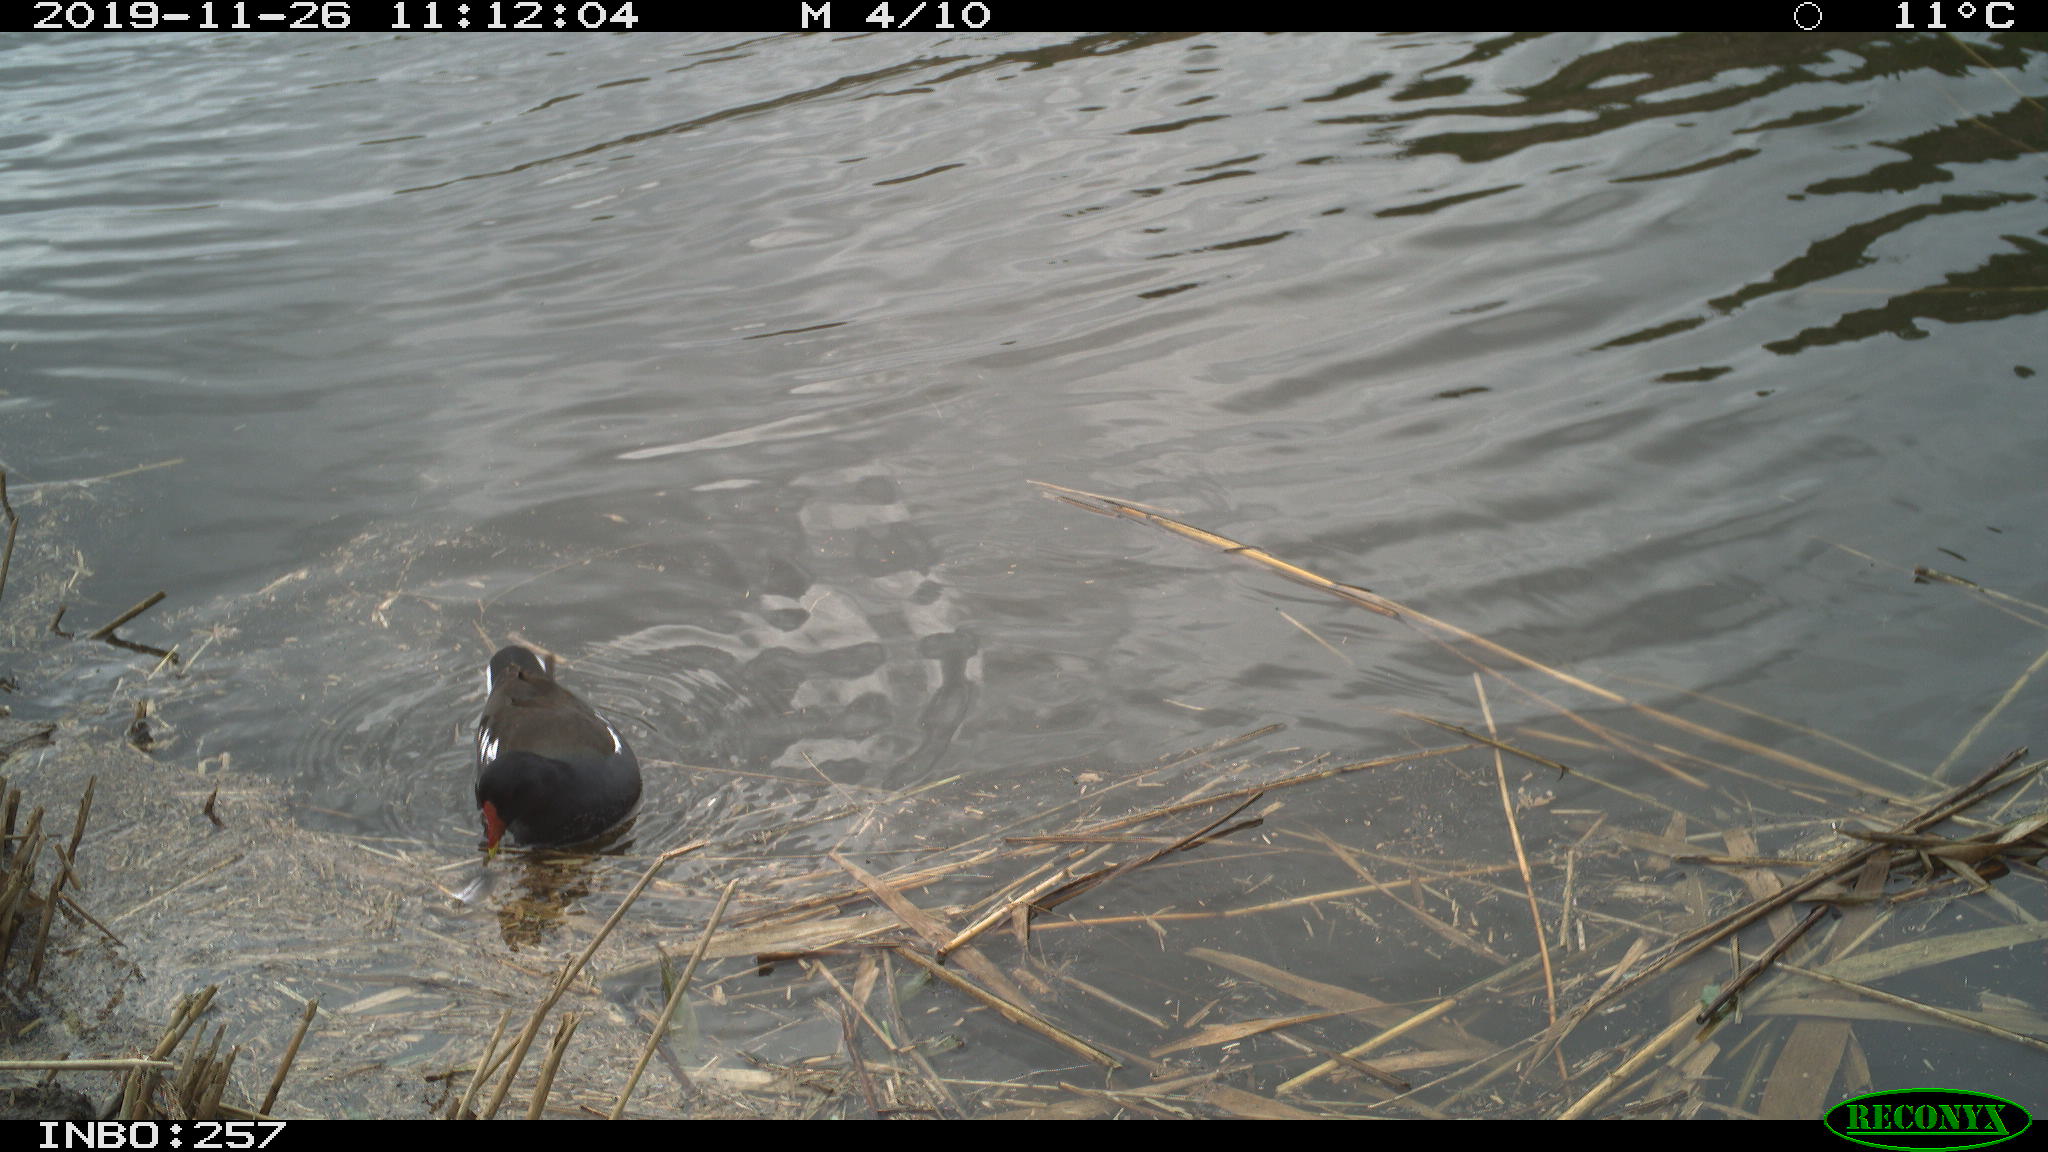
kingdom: Animalia
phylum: Chordata
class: Aves
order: Gruiformes
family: Rallidae
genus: Gallinula
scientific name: Gallinula chloropus
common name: Common moorhen
